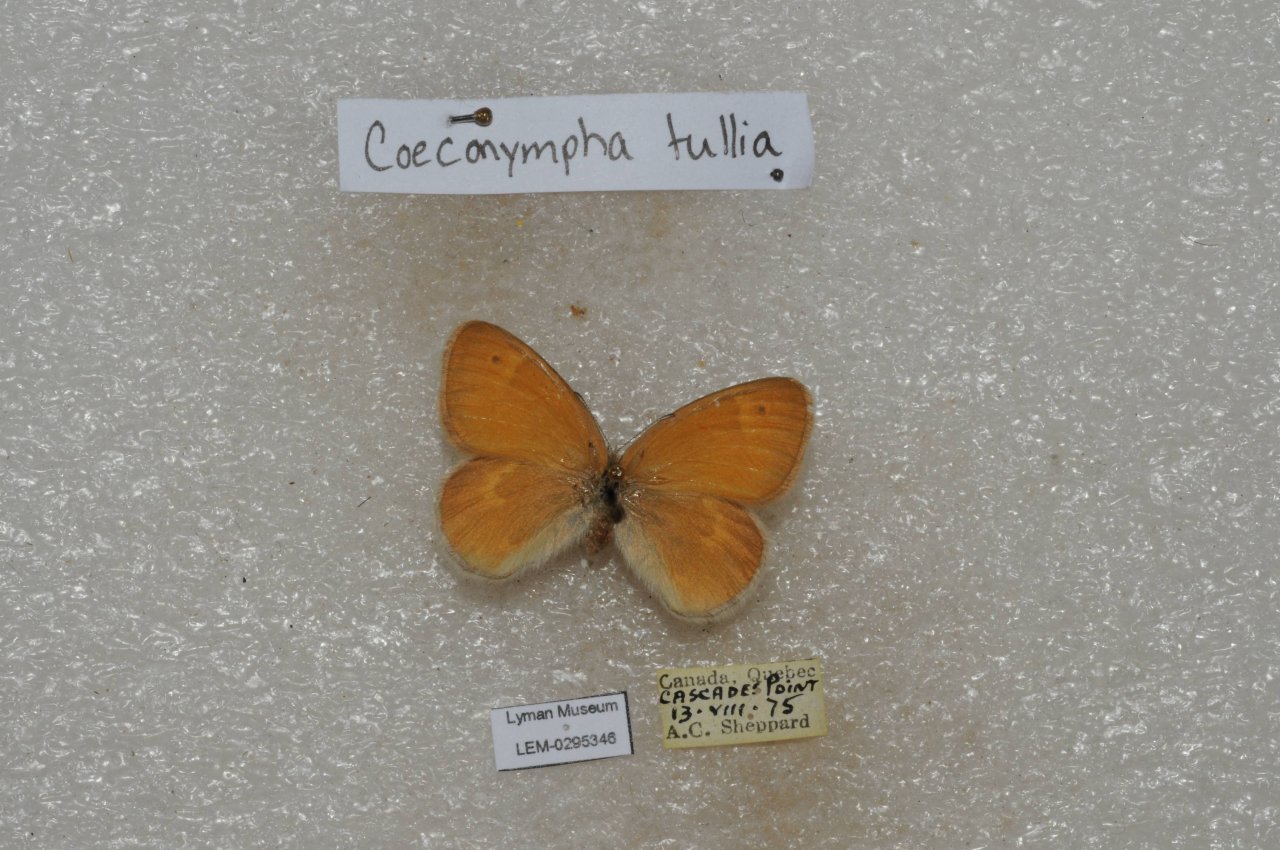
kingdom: Animalia
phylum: Arthropoda
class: Insecta
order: Lepidoptera
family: Nymphalidae
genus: Coenonympha
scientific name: Coenonympha tullia
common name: Large Heath
